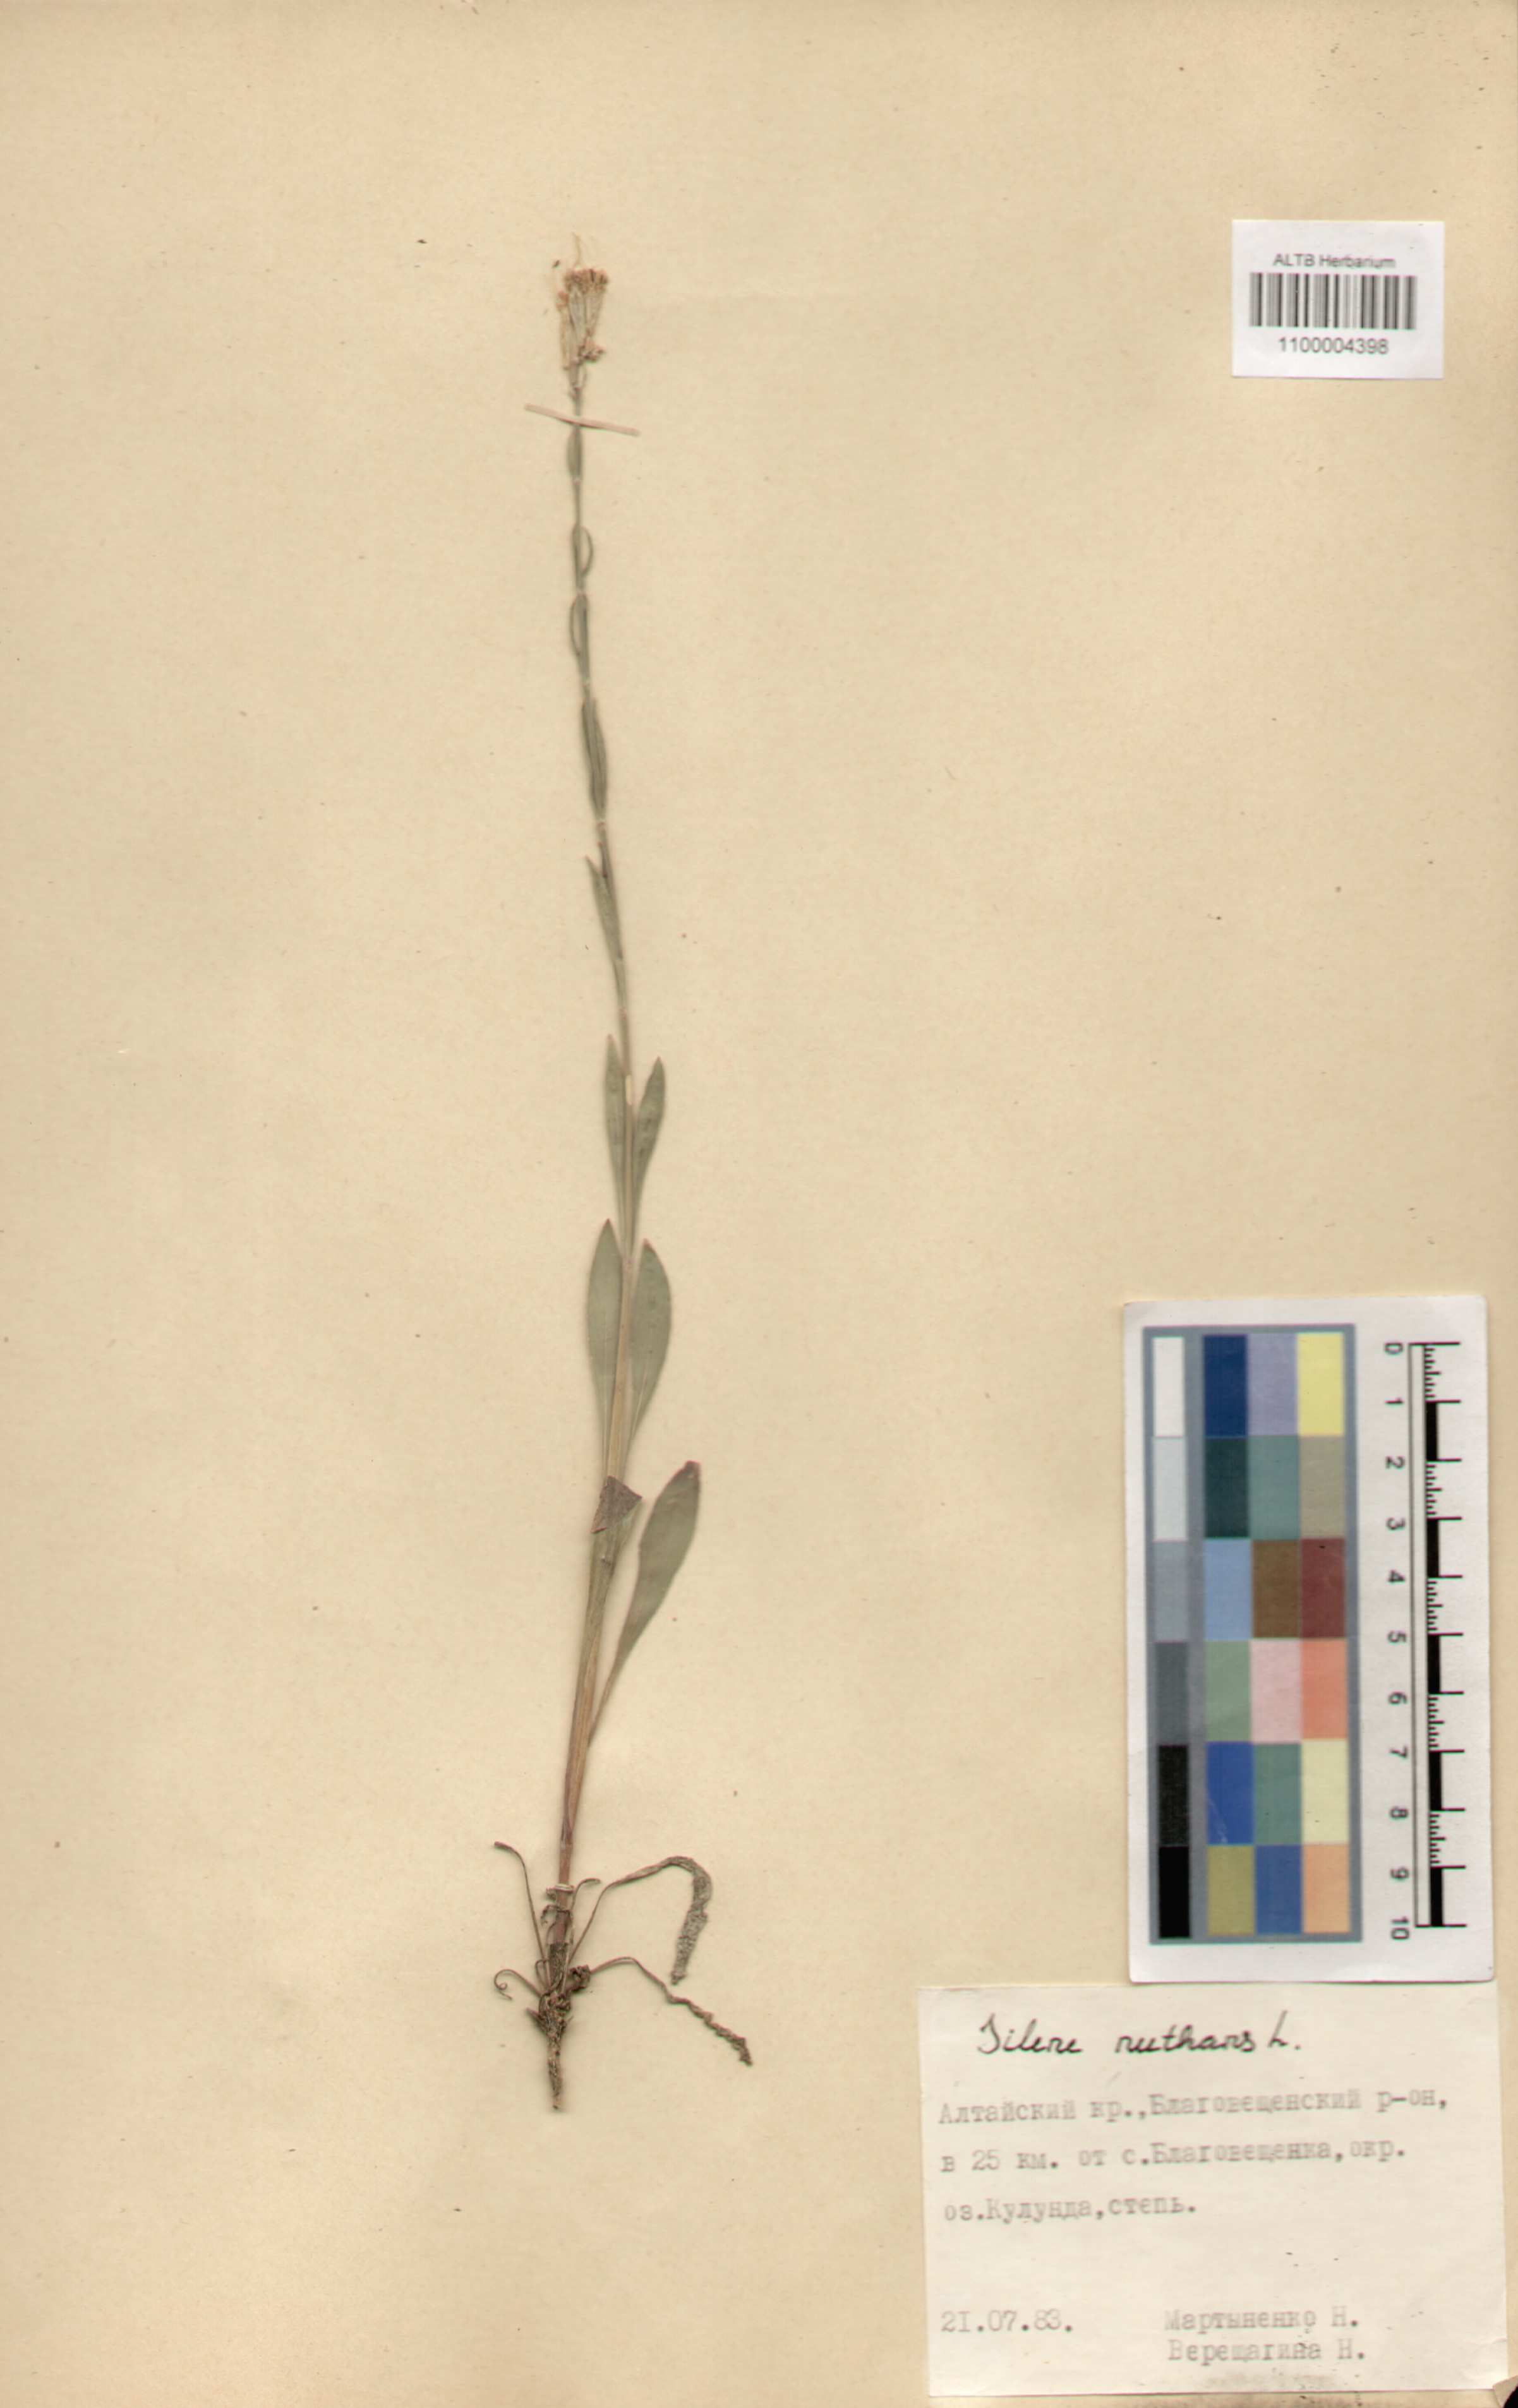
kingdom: Plantae
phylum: Tracheophyta
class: Magnoliopsida
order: Caryophyllales
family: Caryophyllaceae
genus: Silene
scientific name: Silene nutans
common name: Nottingham catchfly
